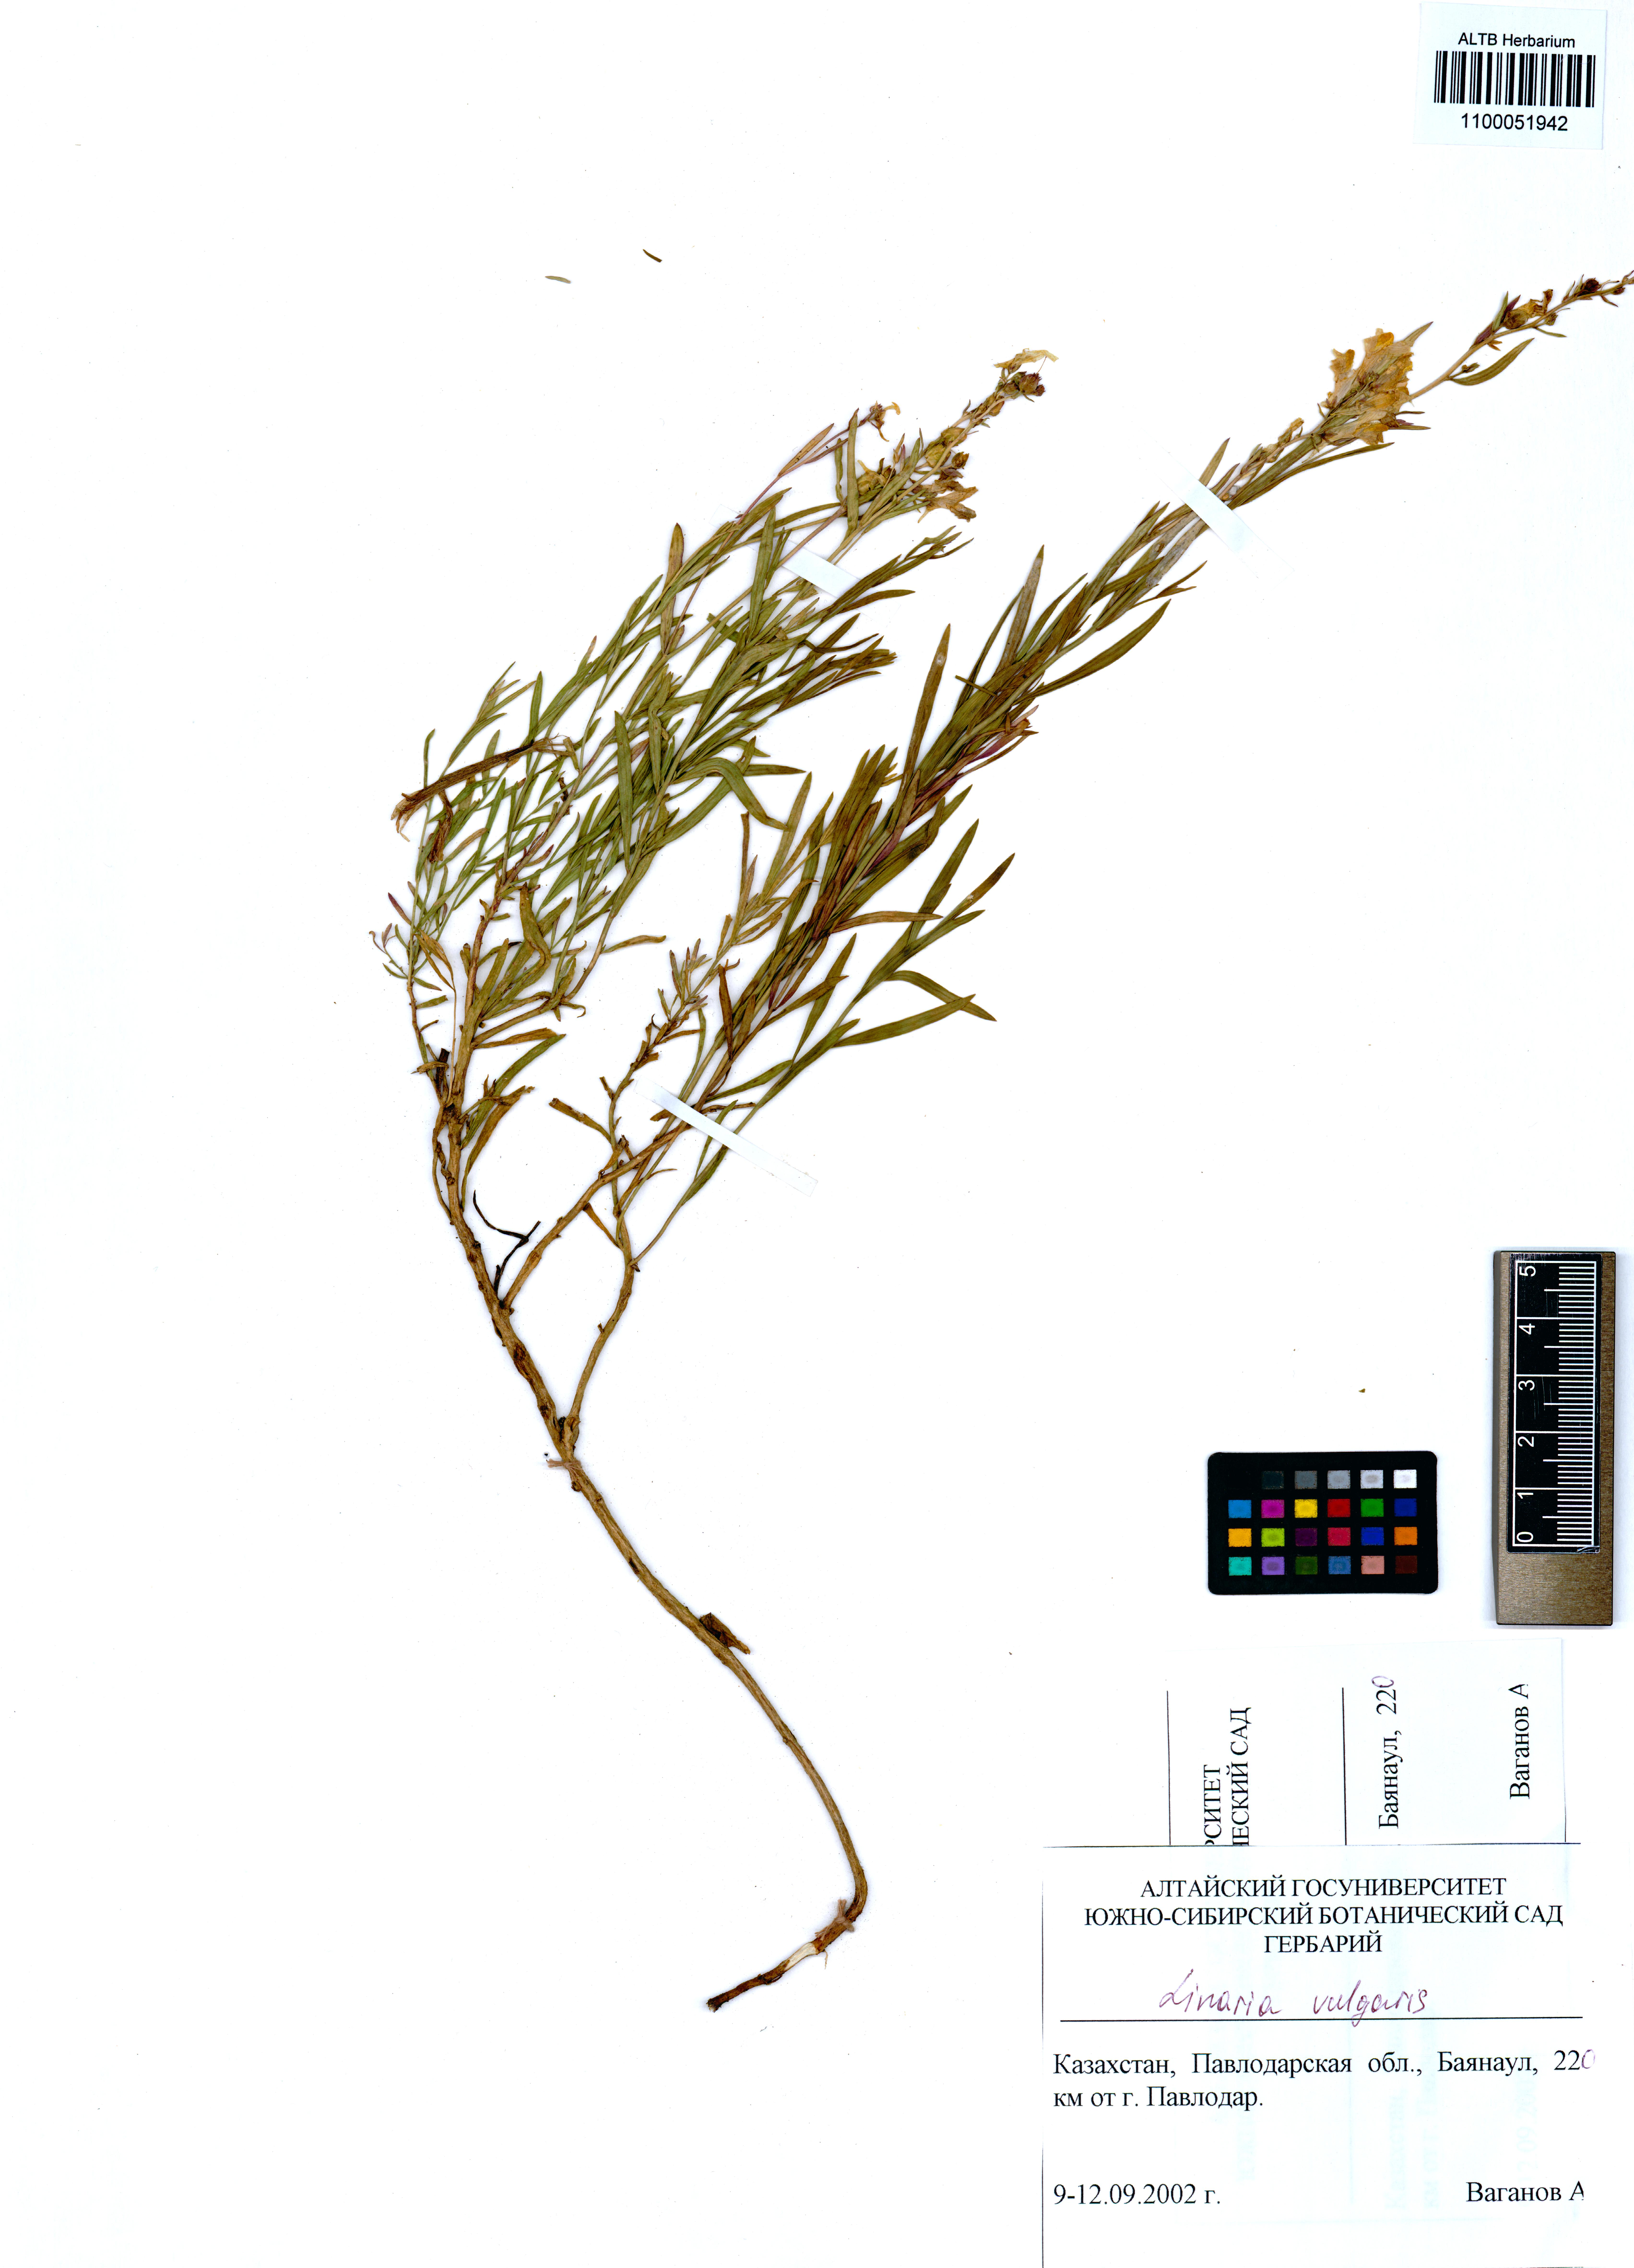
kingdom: Plantae
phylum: Tracheophyta
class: Magnoliopsida
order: Lamiales
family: Plantaginaceae
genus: Linaria
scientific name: Linaria vulgaris
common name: Butter and eggs
